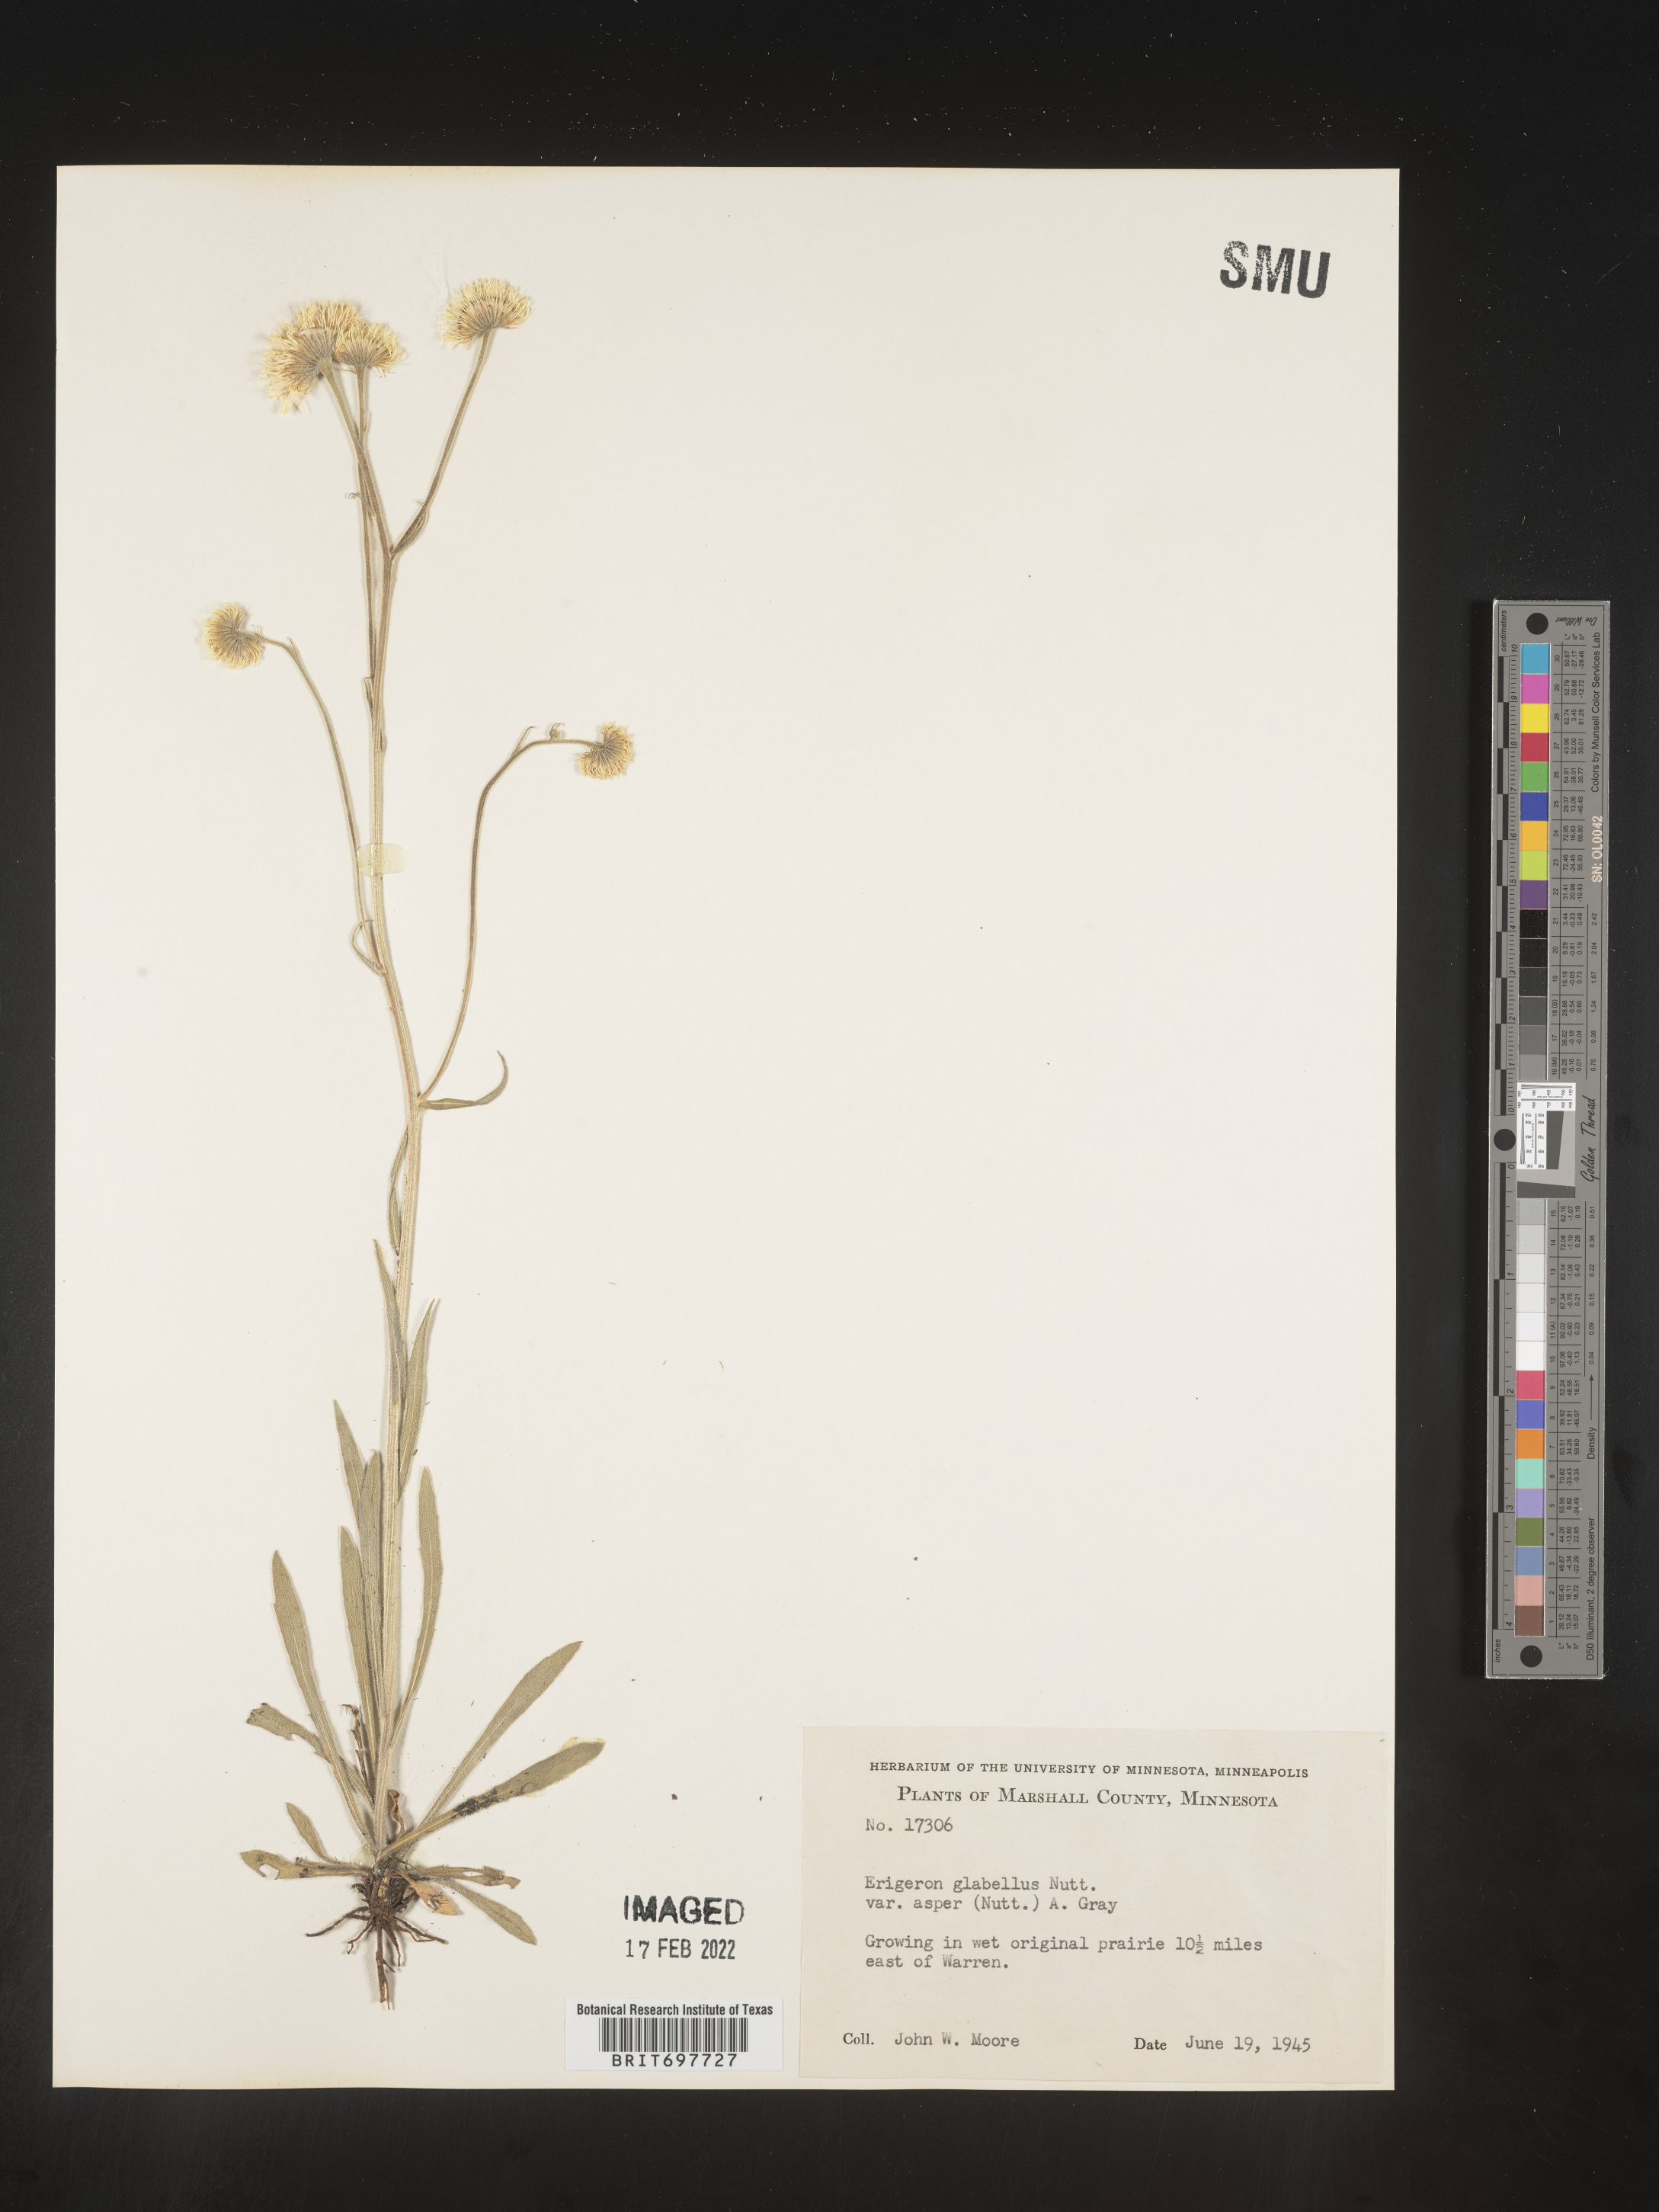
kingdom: Plantae
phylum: Tracheophyta
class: Magnoliopsida
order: Asterales
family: Asteraceae
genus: Erigeron
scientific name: Erigeron glabellus
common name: Smooth fleabane
